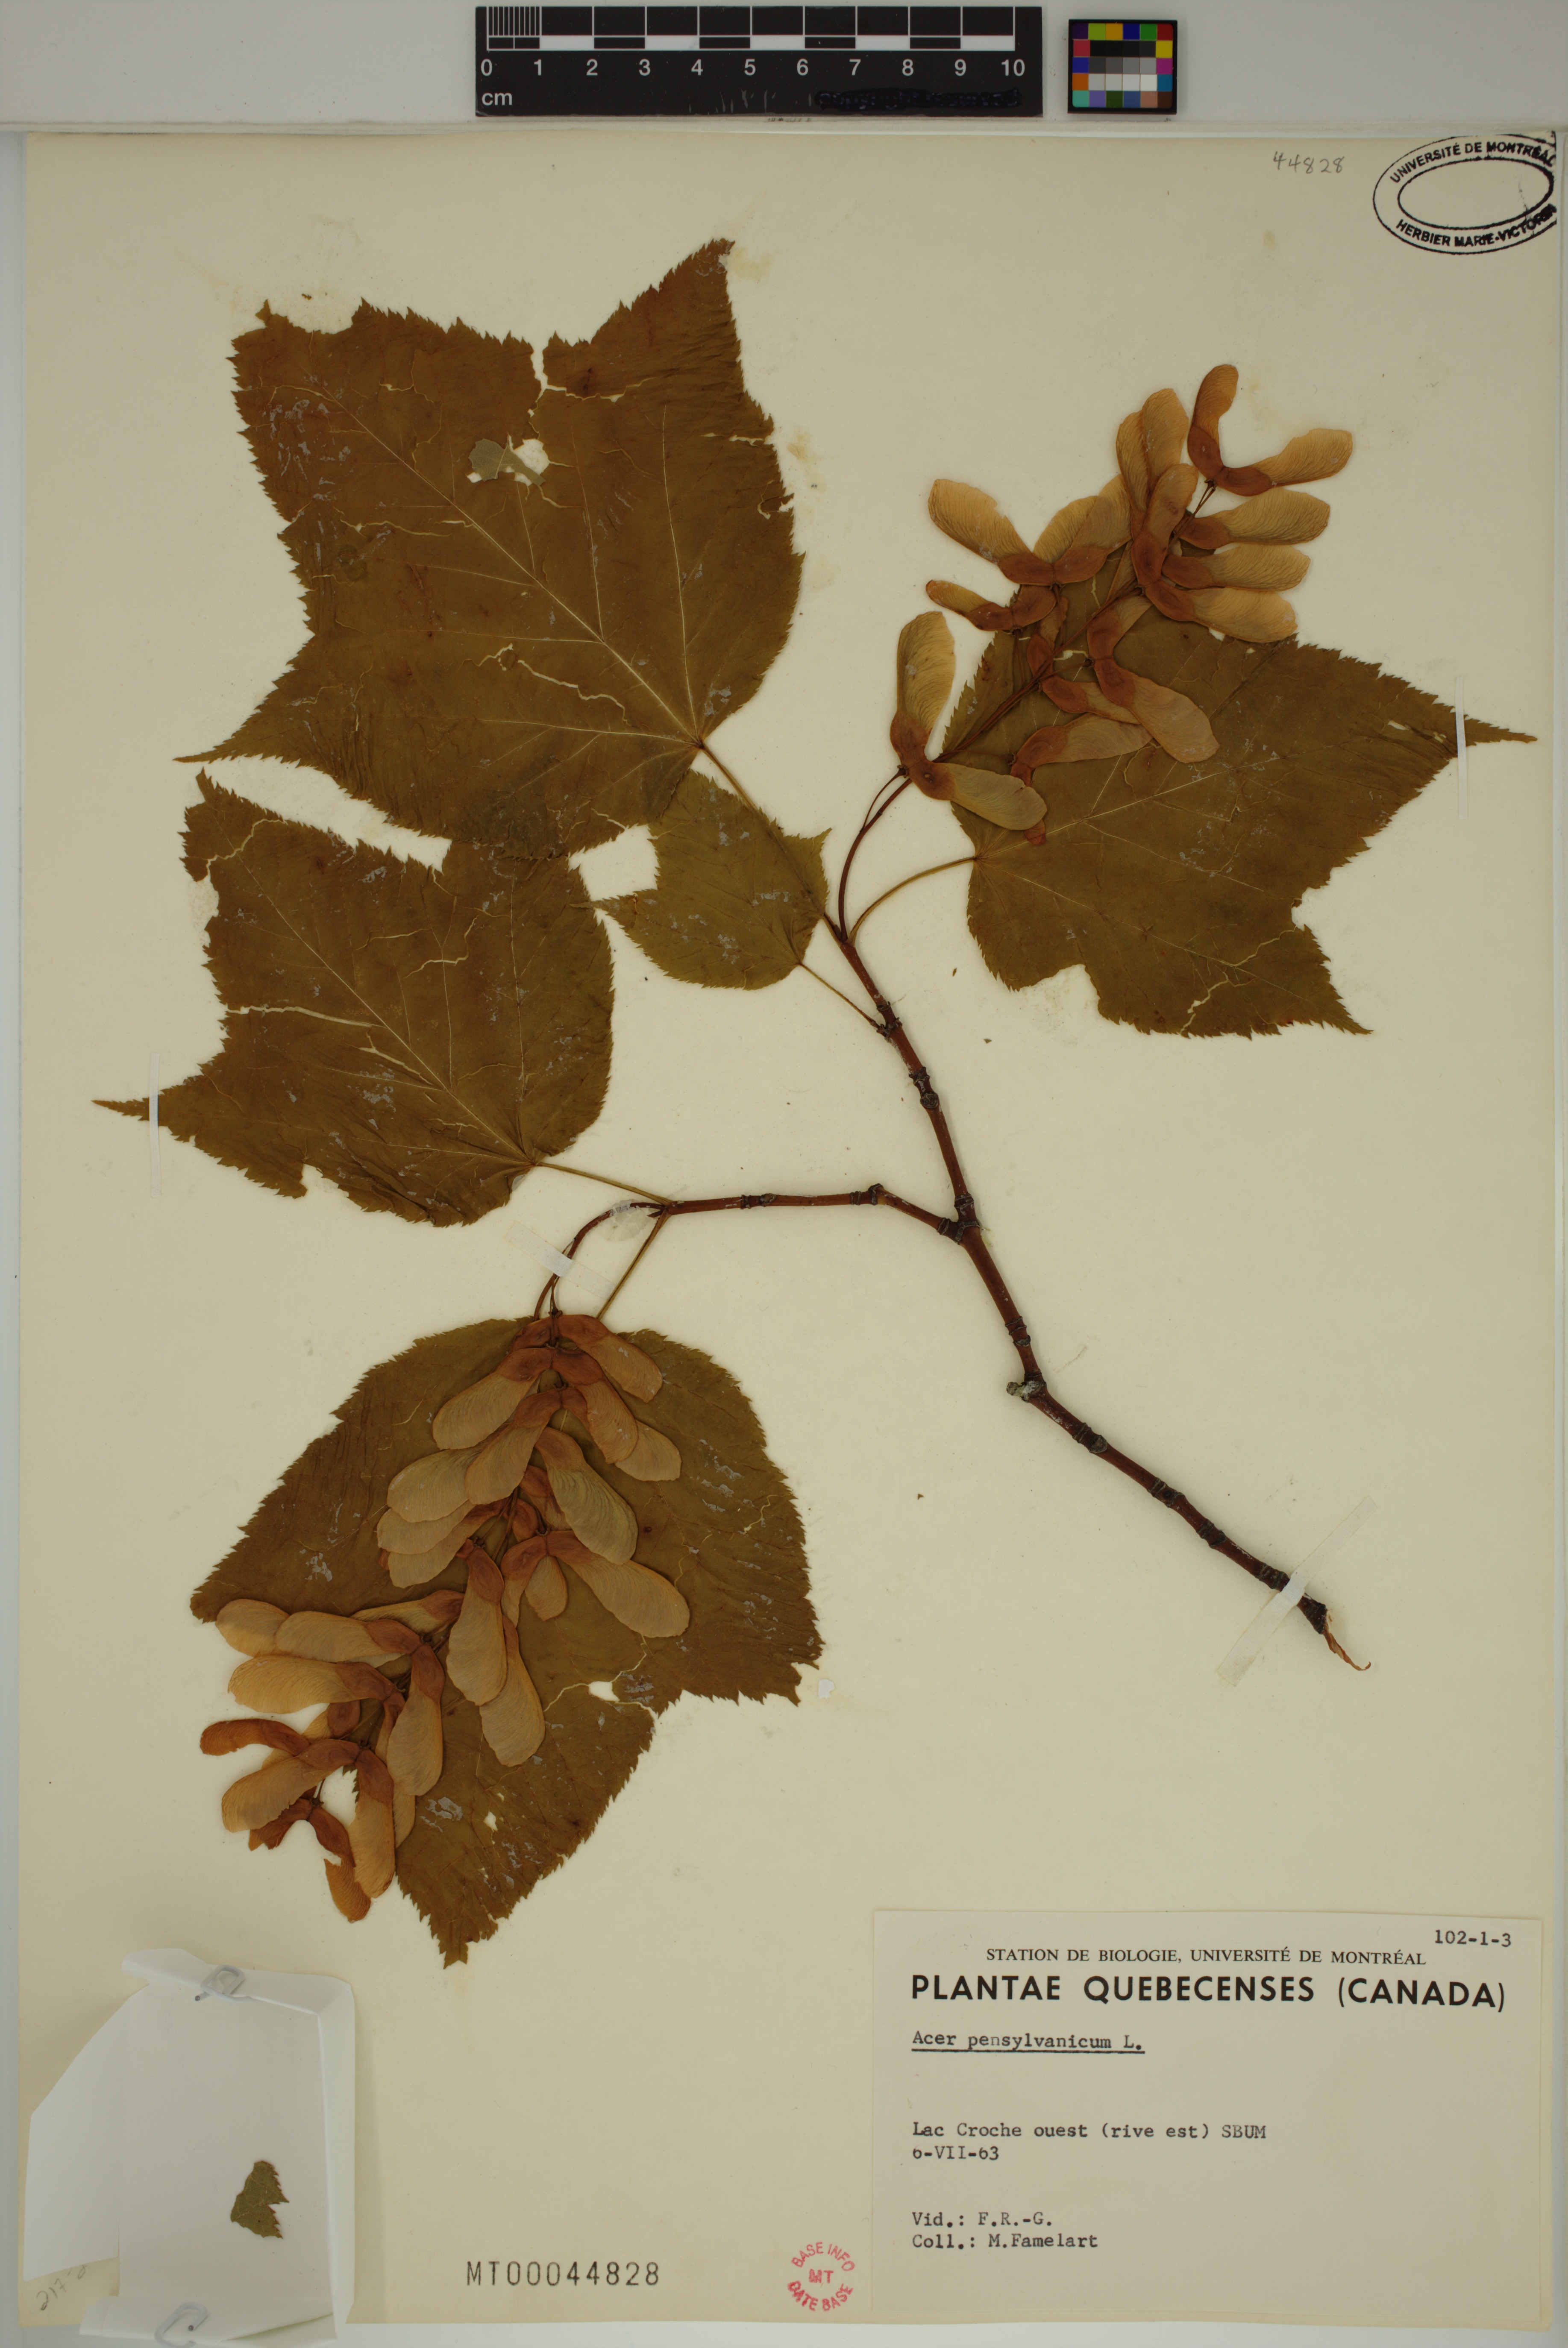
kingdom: Plantae
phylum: Tracheophyta
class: Magnoliopsida
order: Sapindales
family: Sapindaceae
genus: Acer
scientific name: Acer pensylvanicum
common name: Moosewood
